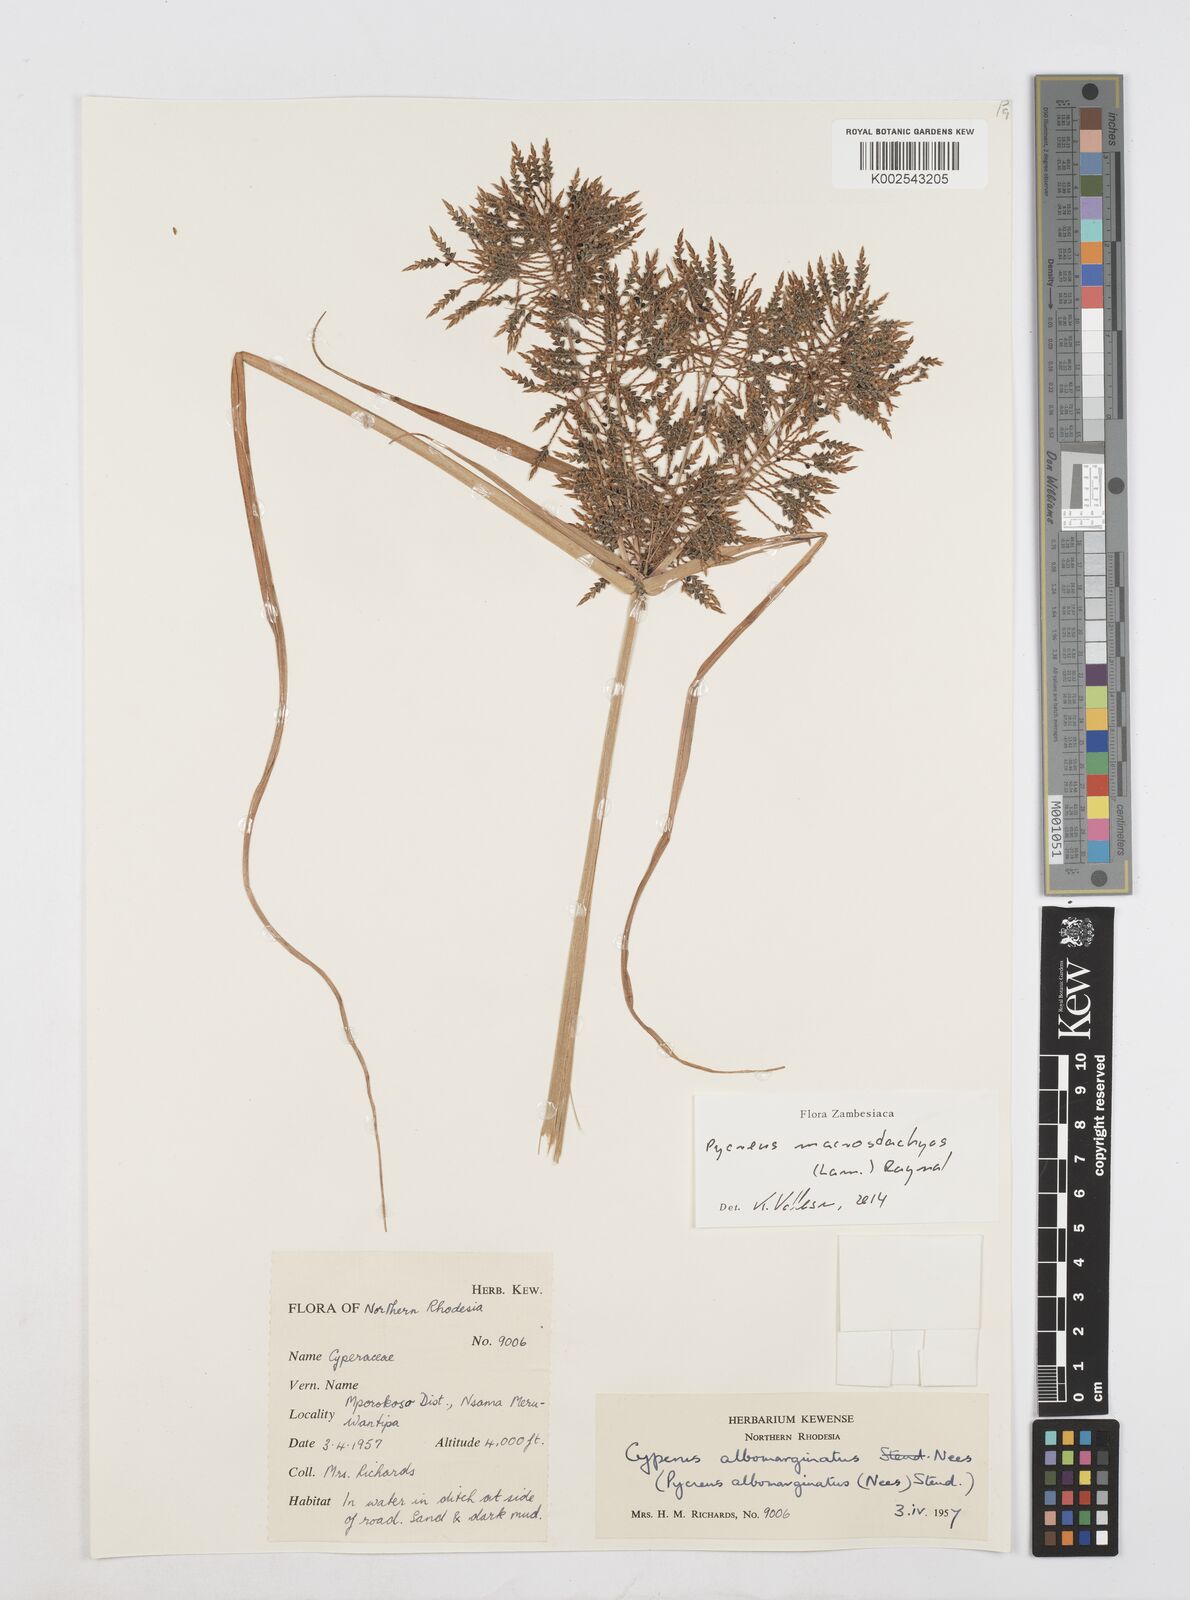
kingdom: Plantae
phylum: Tracheophyta
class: Liliopsida
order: Poales
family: Cyperaceae
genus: Cyperus
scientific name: Cyperus macrostachyos
